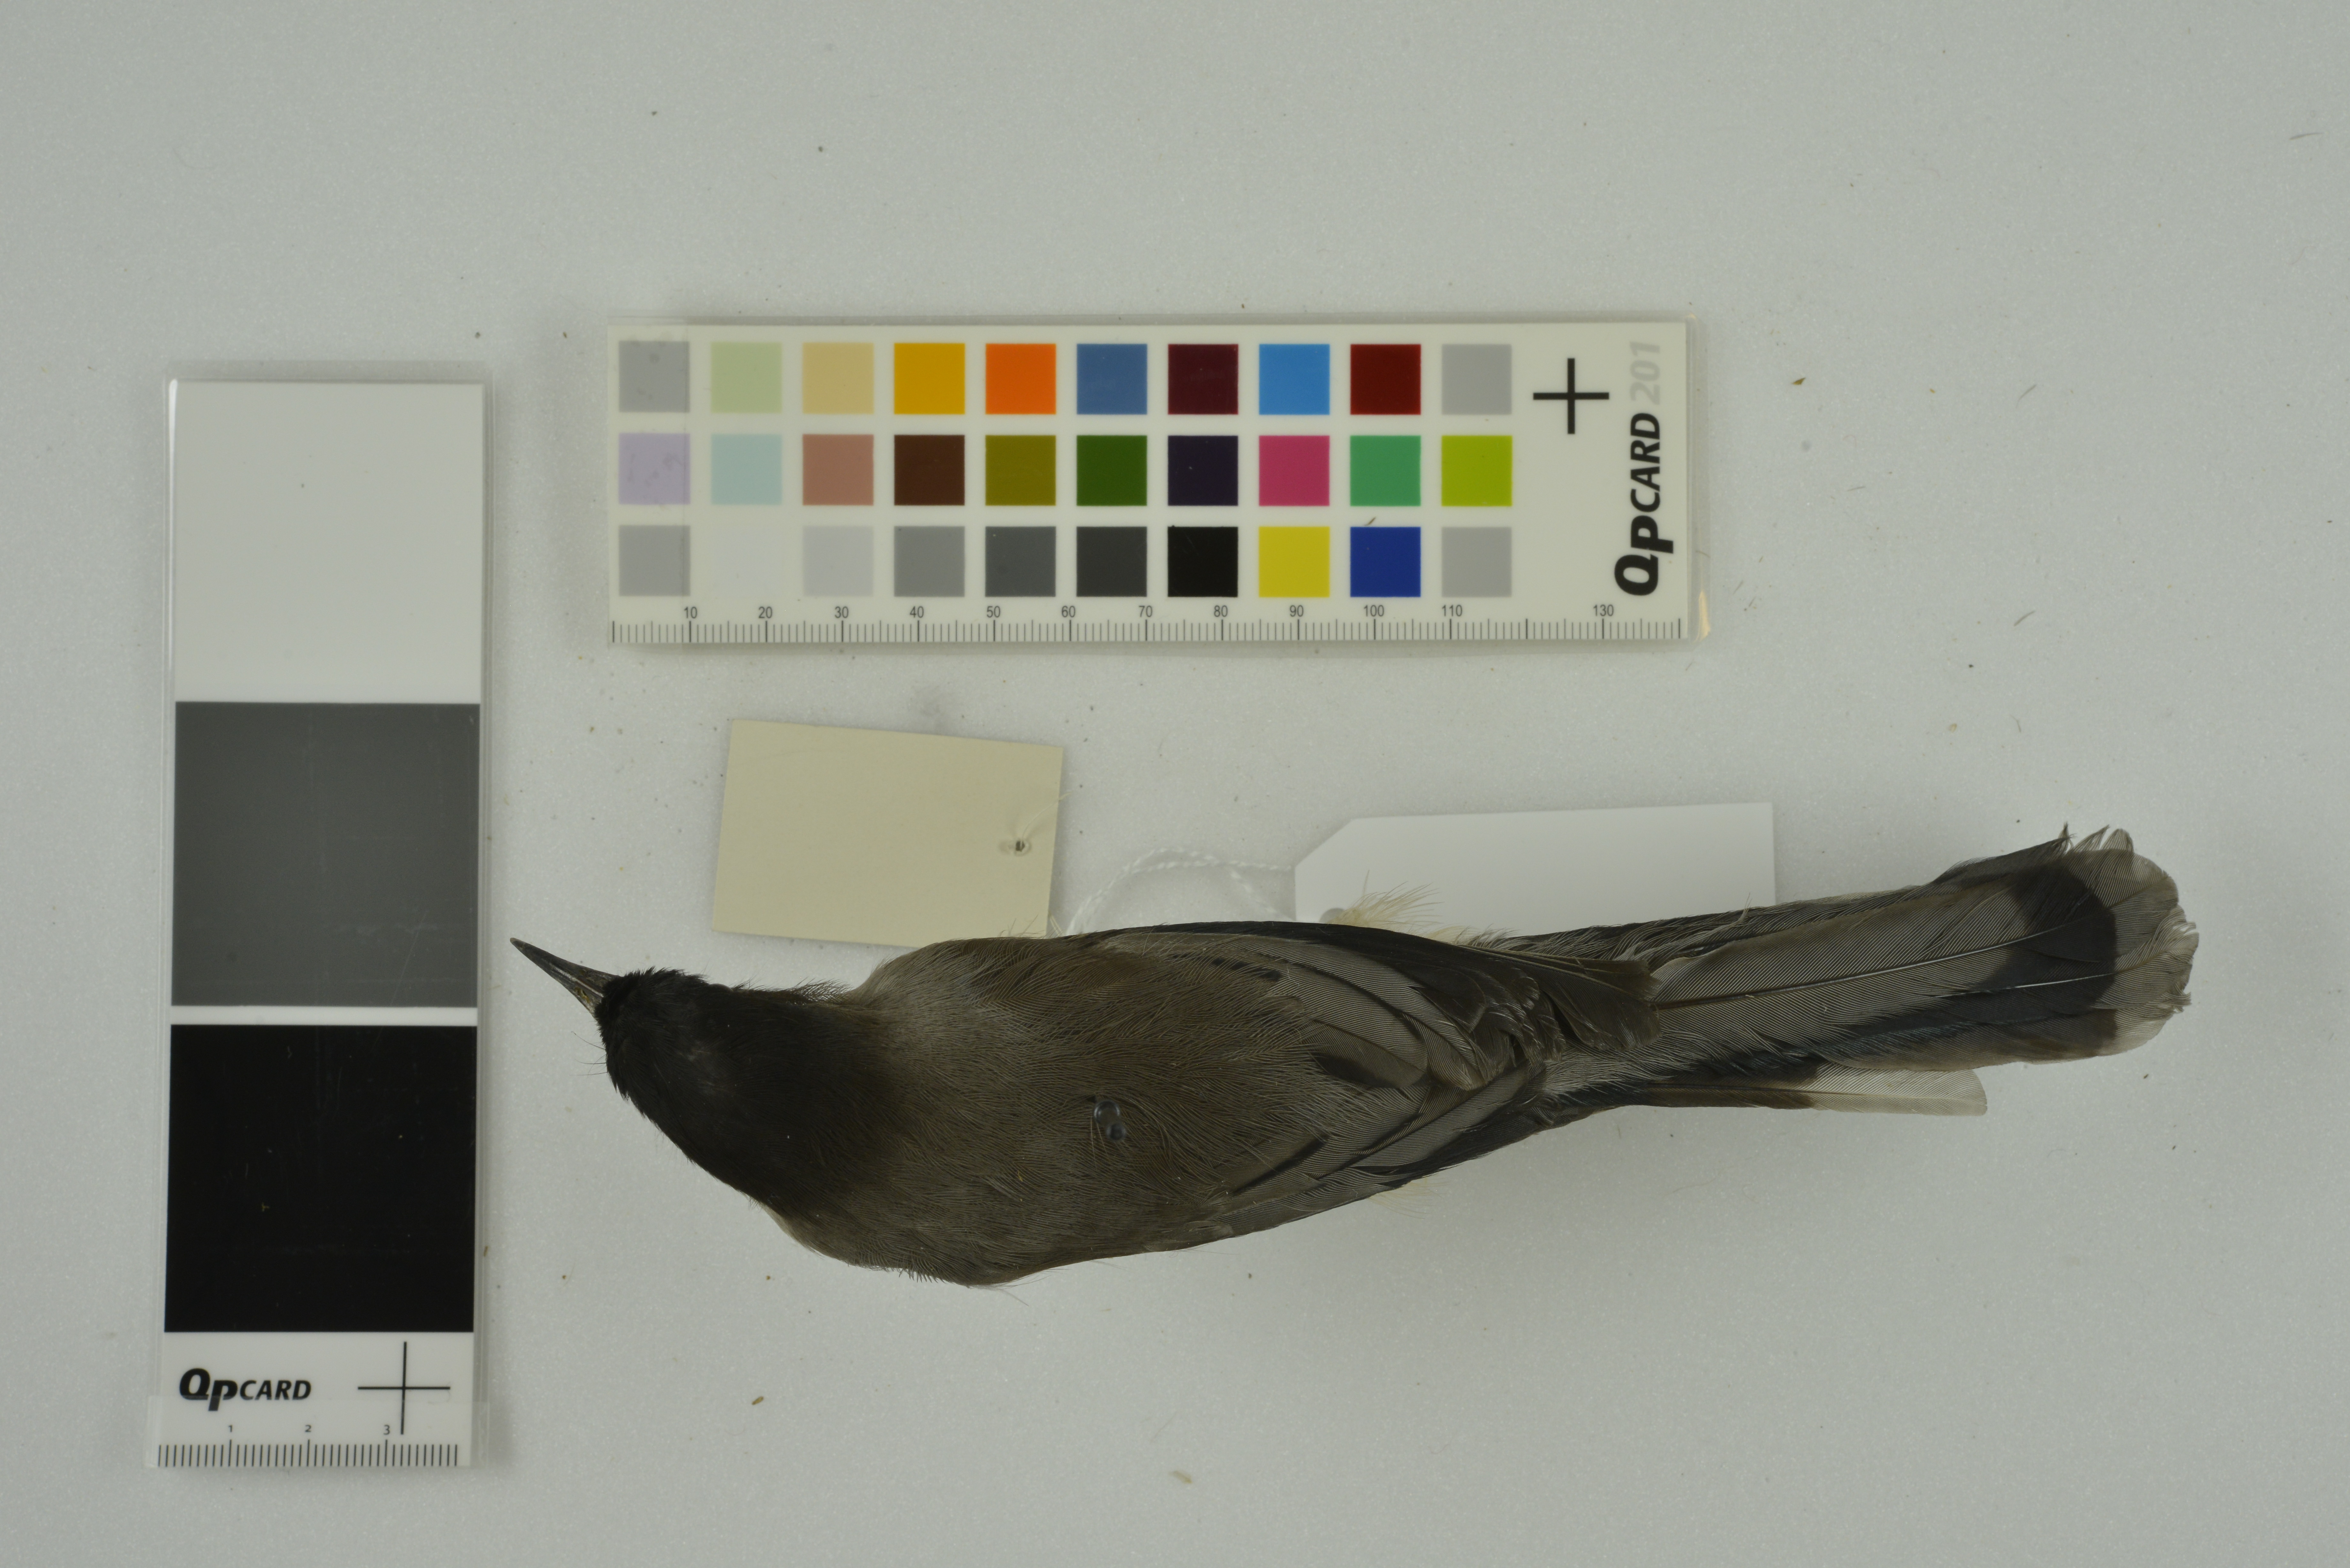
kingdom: Animalia
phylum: Chordata
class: Aves
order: Passeriformes
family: Leiothrichidae
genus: Heterophasia
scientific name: Heterophasia gracilis
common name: Grey sibia
